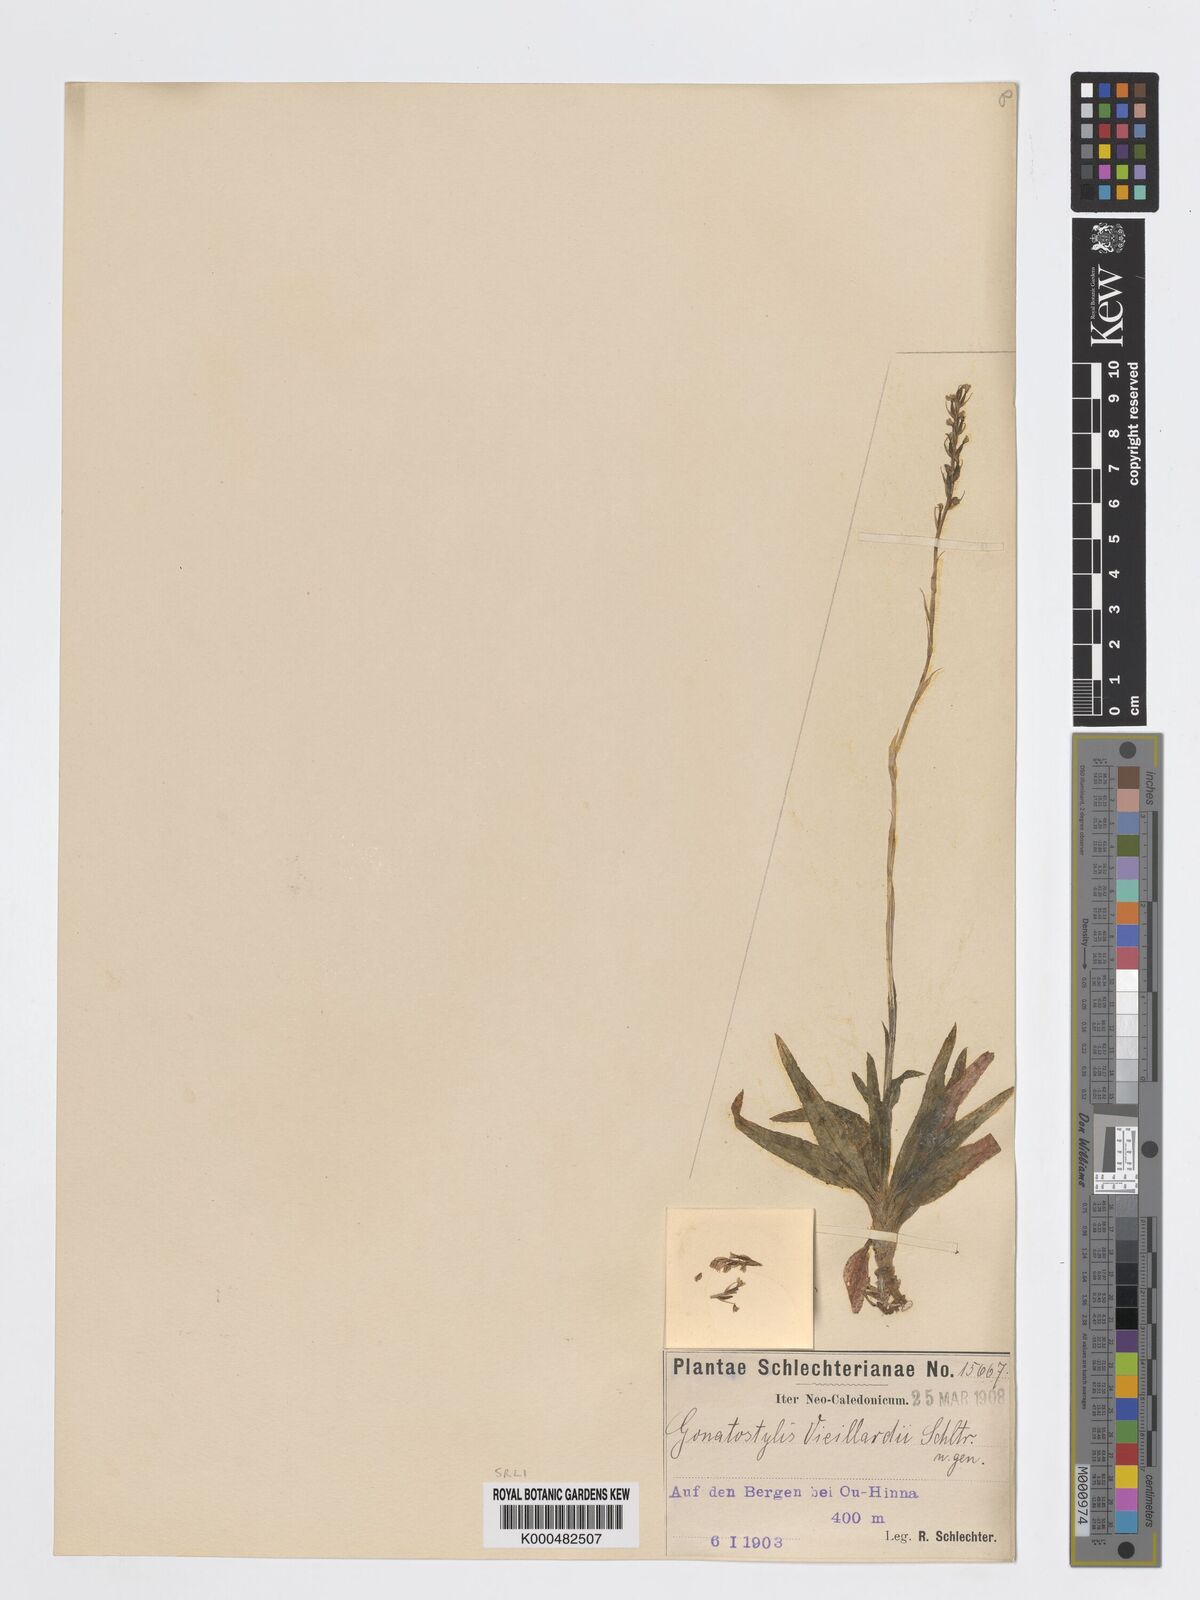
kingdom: Plantae
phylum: Tracheophyta
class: Liliopsida
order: Asparagales
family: Orchidaceae
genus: Gonatostylis
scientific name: Gonatostylis vieillardii
